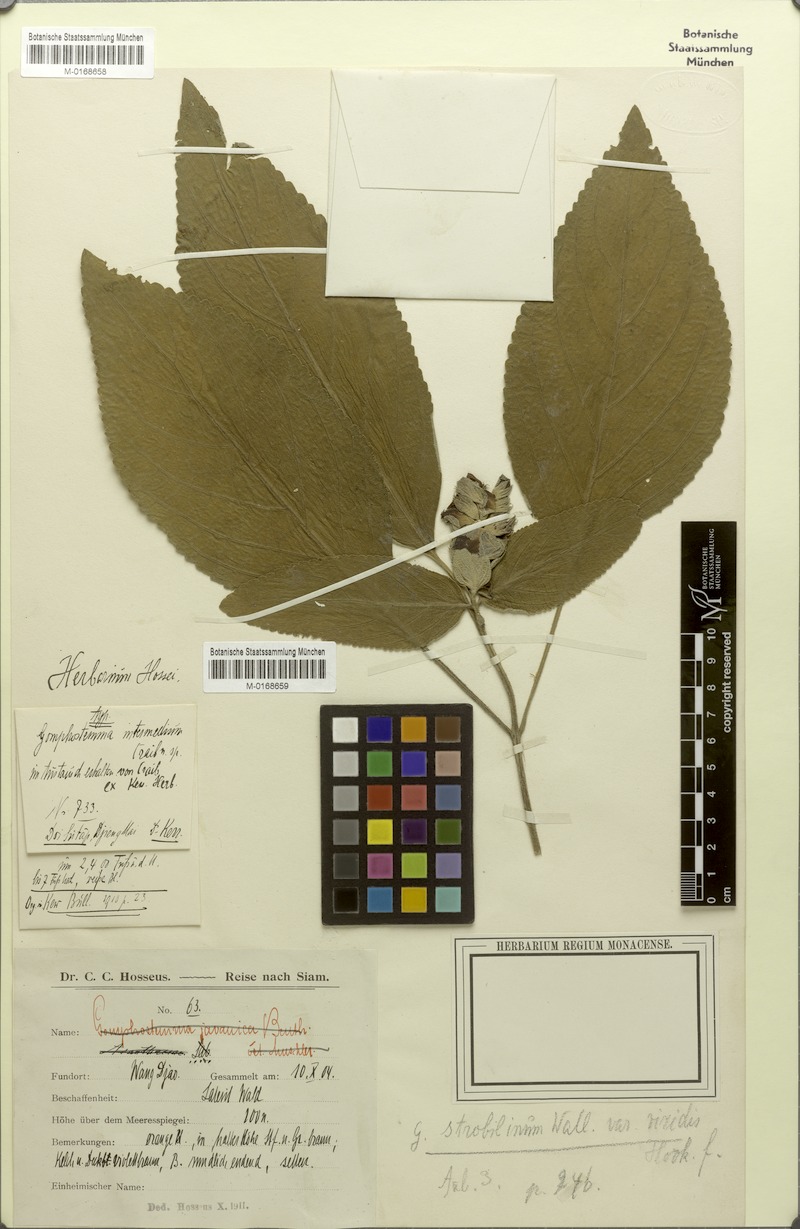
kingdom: Plantae
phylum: Tracheophyta
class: Magnoliopsida
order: Lamiales
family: Lamiaceae
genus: Gomphostemma
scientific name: Gomphostemma strobilinum
